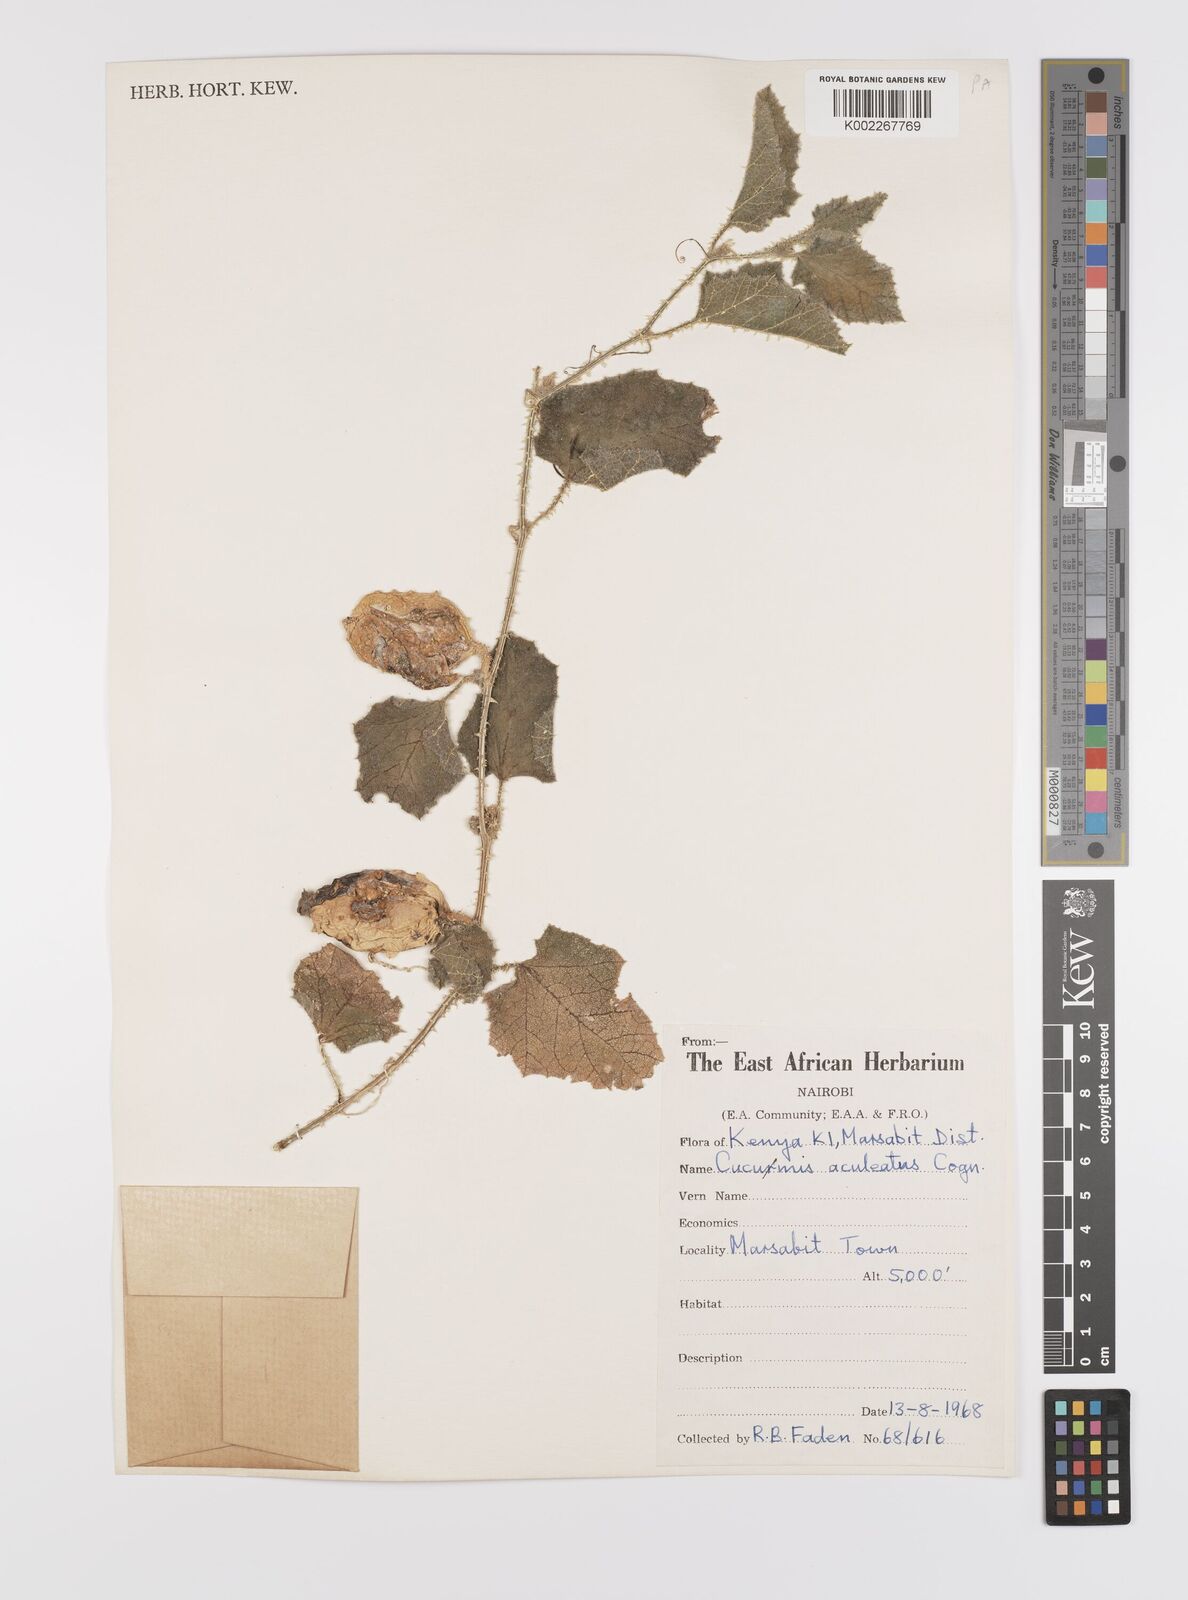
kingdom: Plantae
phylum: Tracheophyta
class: Magnoliopsida
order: Cucurbitales
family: Cucurbitaceae
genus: Cucumis
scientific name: Cucumis aculeatus
